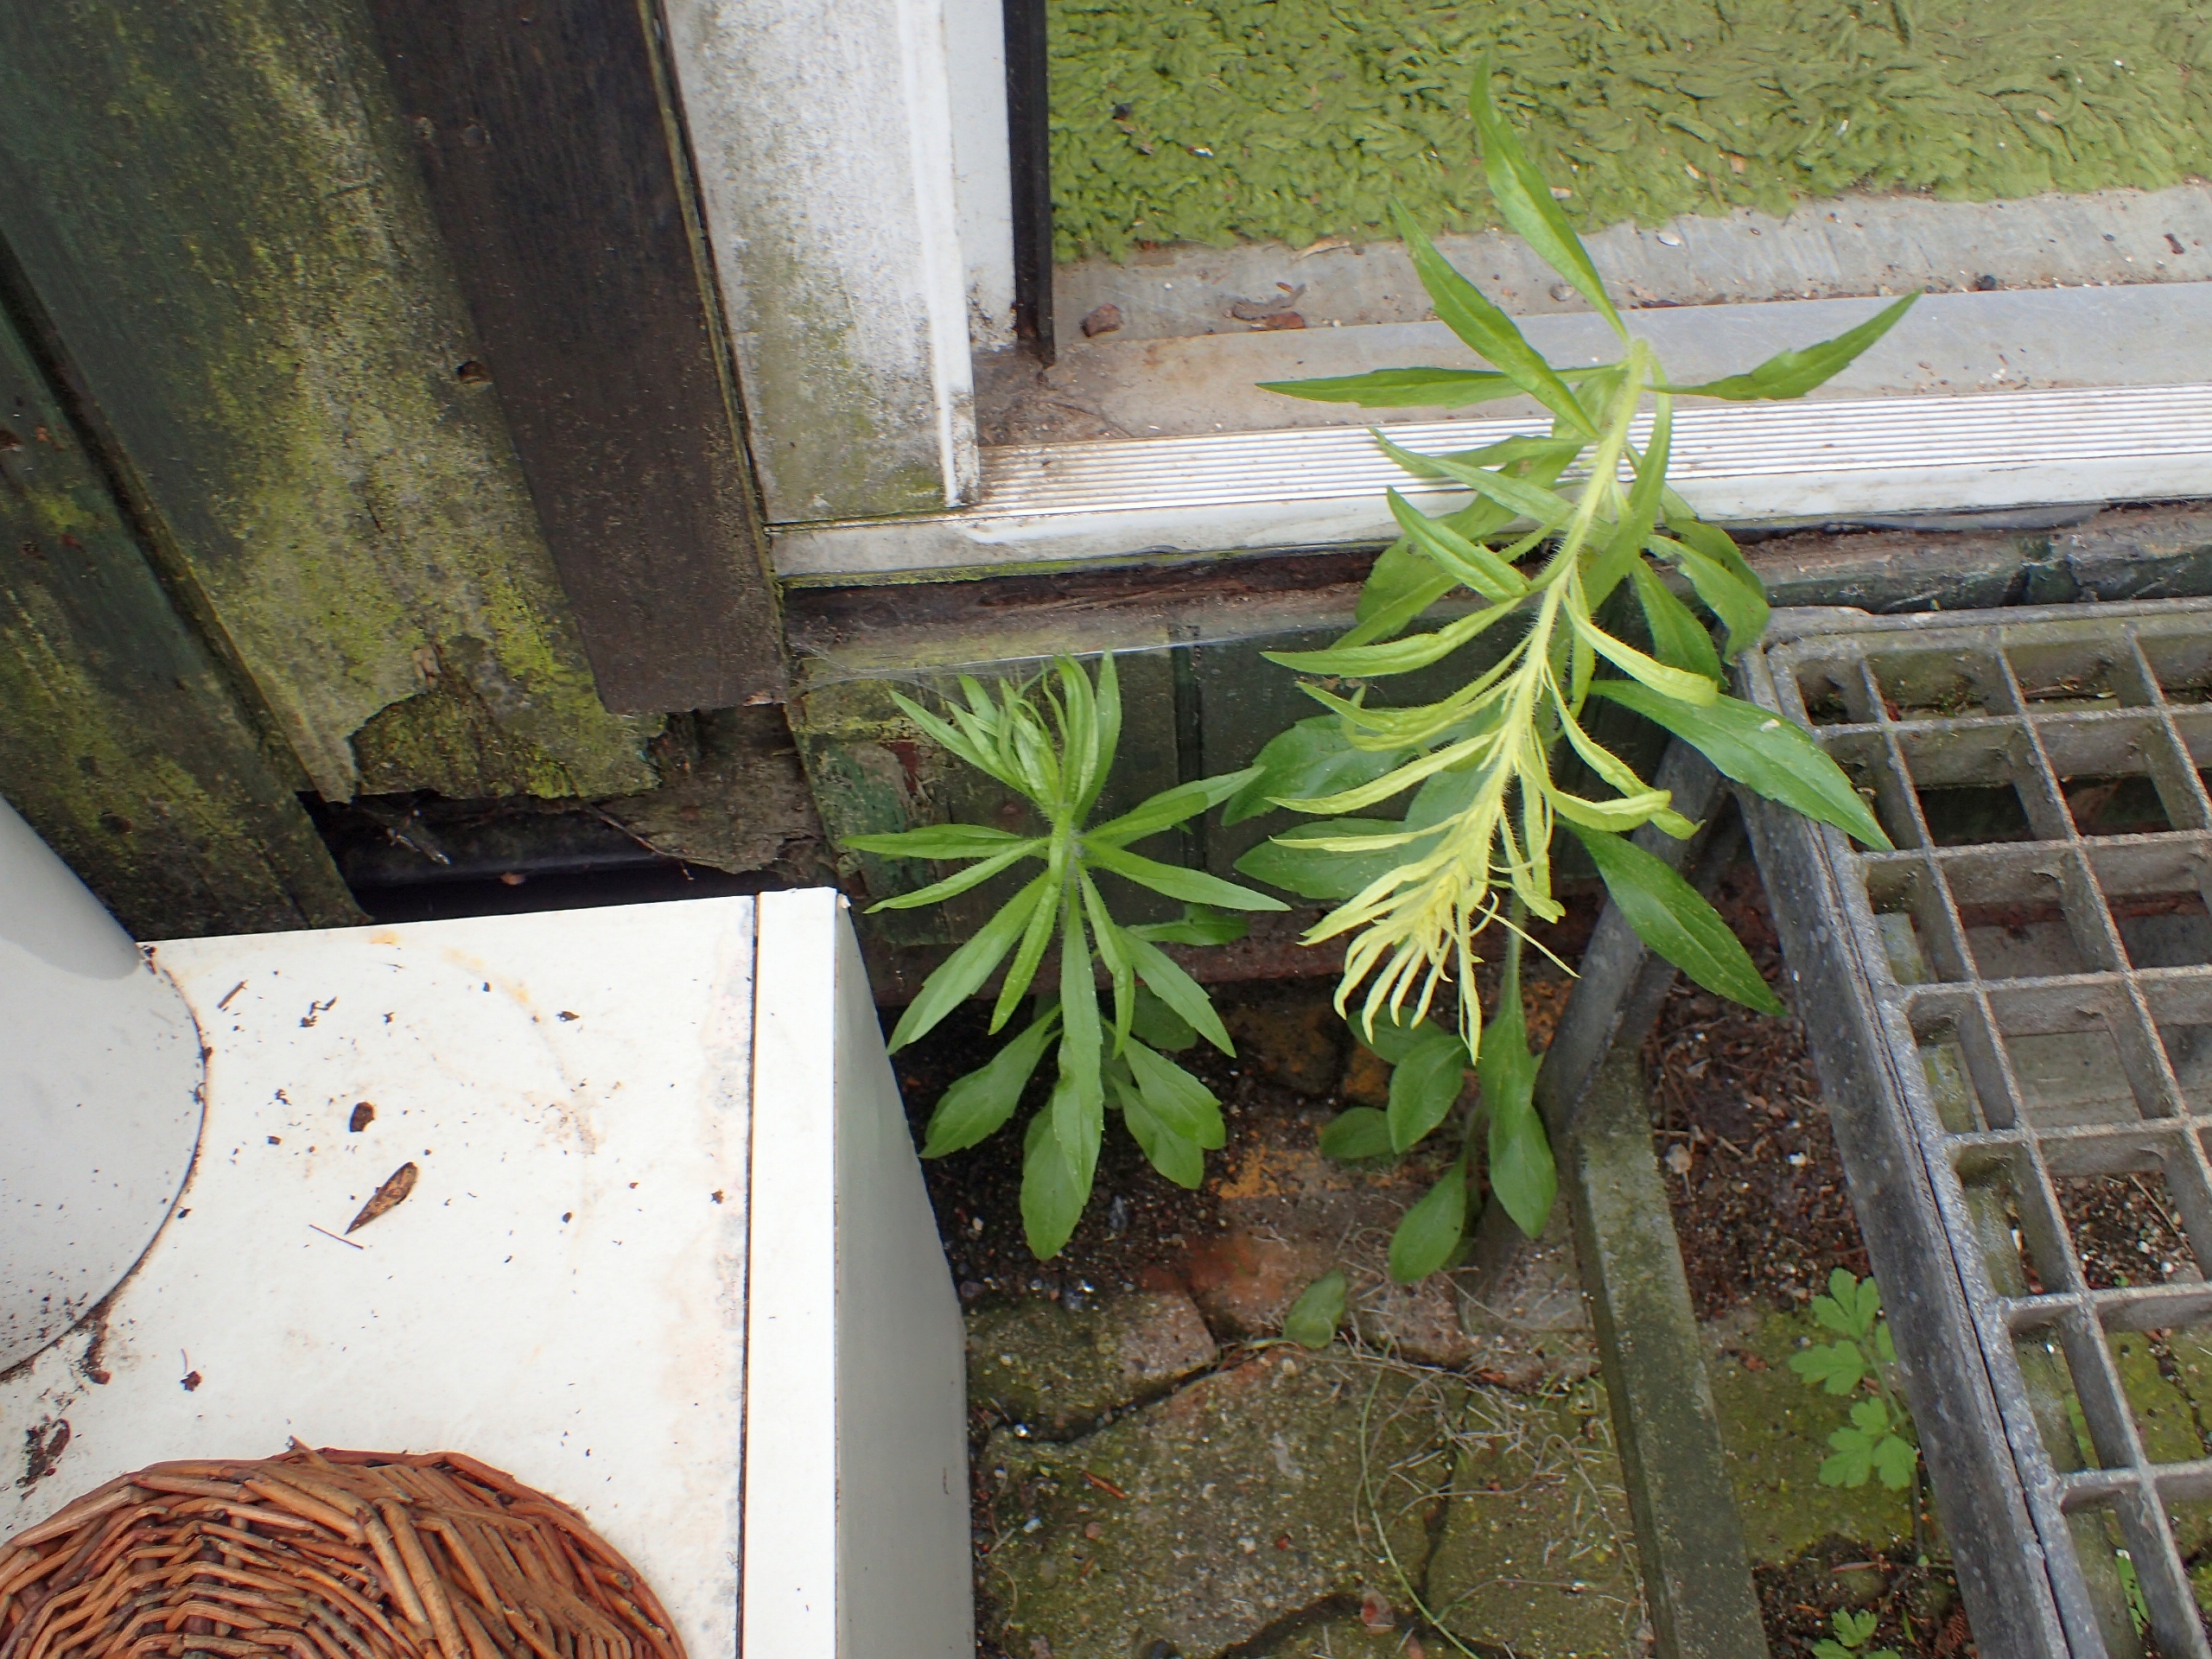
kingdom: Plantae
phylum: Tracheophyta
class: Magnoliopsida
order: Asterales
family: Asteraceae
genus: Erigeron
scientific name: Erigeron canadensis
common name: Kanadisk bakkestjerne
